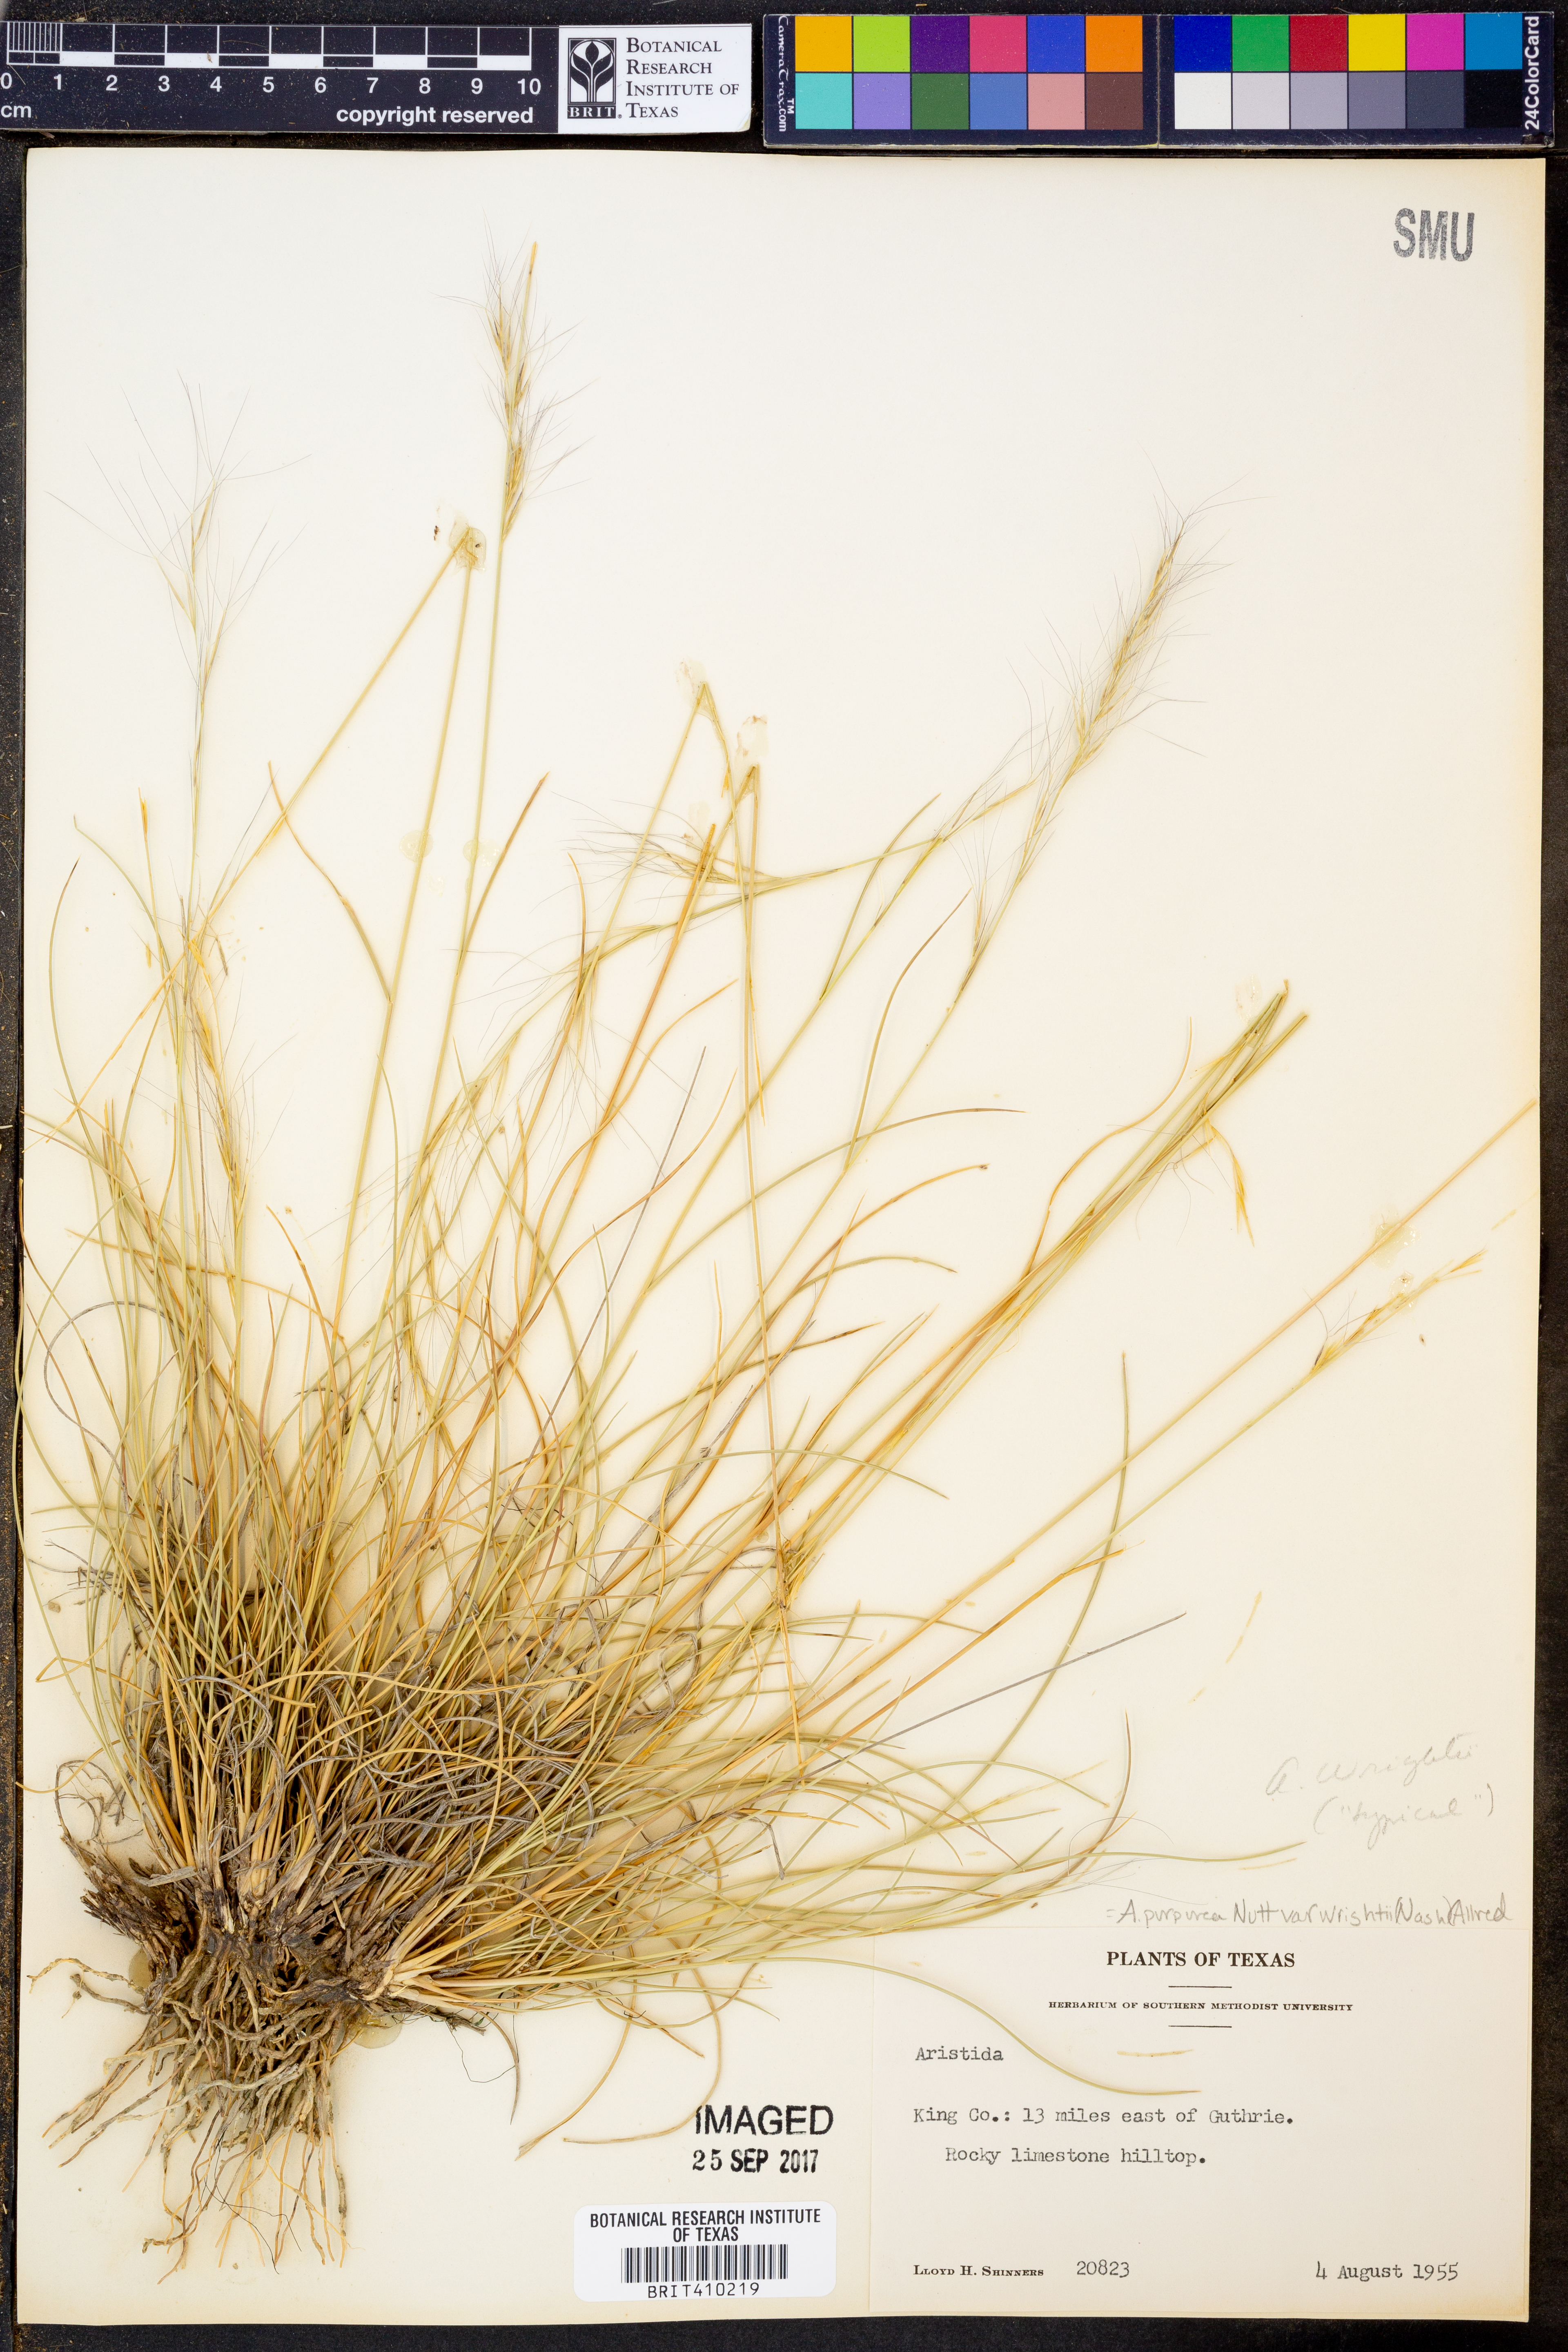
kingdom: Plantae
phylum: Tracheophyta
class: Liliopsida
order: Poales
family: Poaceae
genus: Aristida
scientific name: Aristida wrightii
